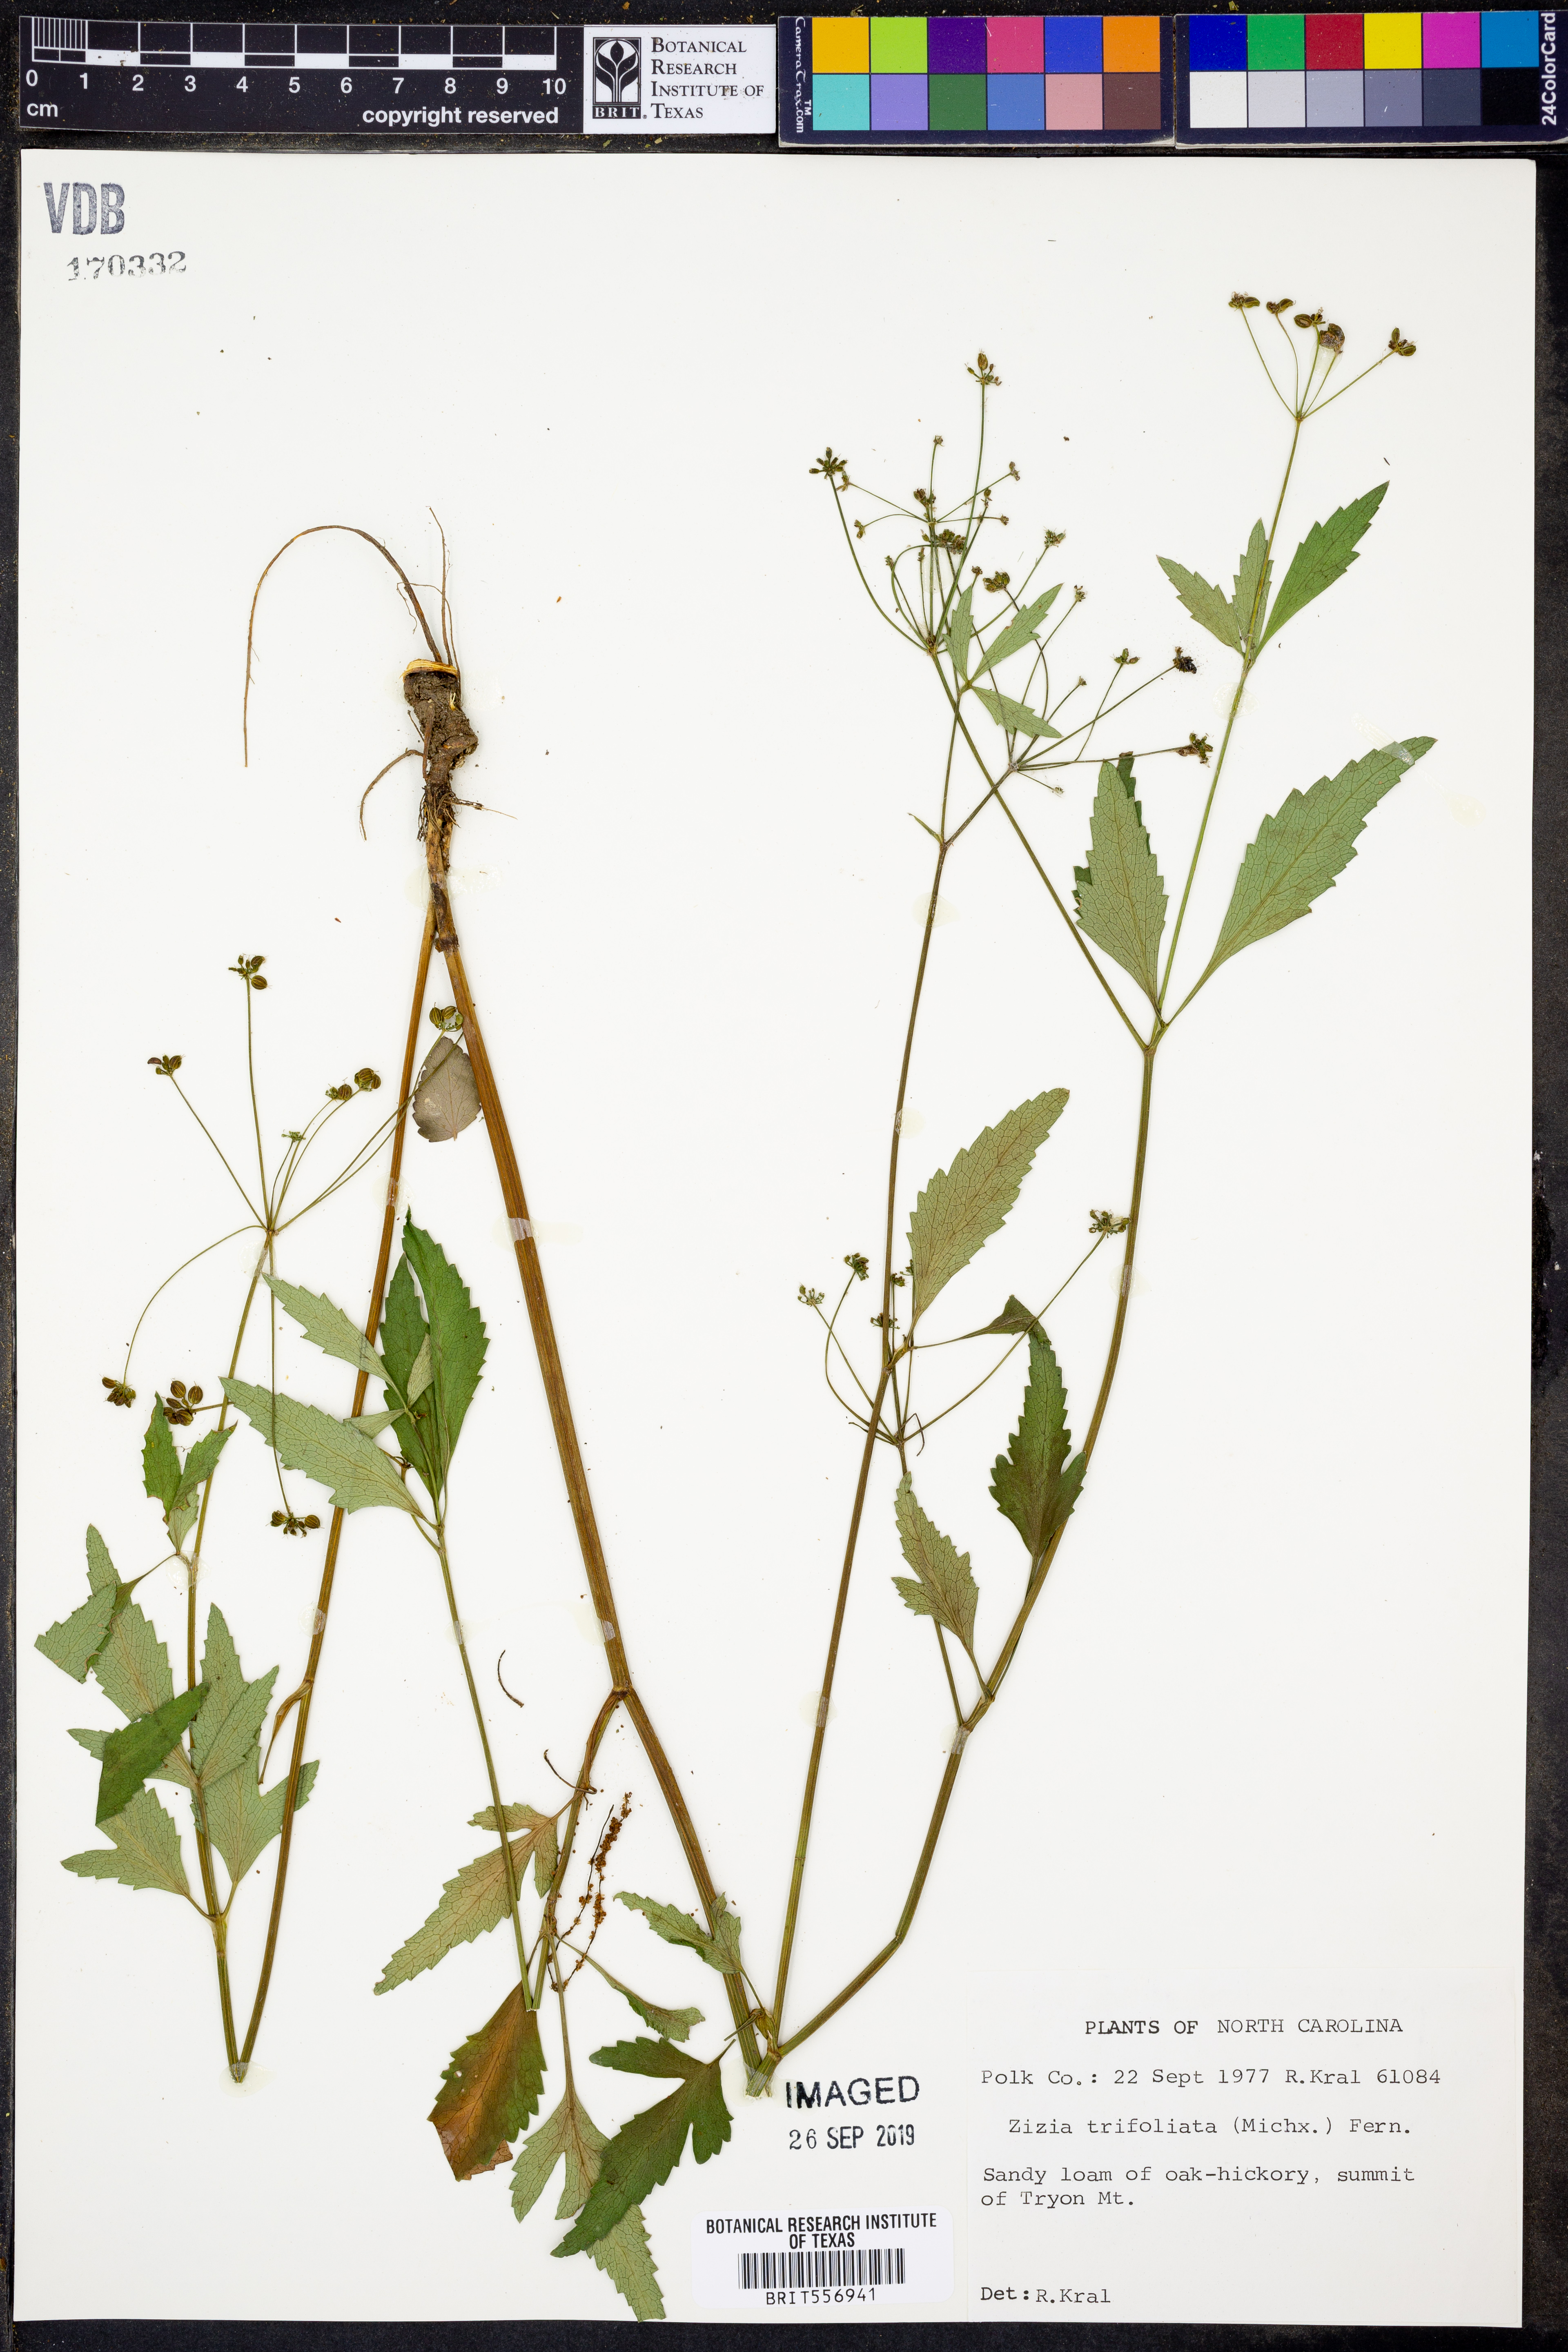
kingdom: Plantae
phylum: Tracheophyta
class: Magnoliopsida
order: Apiales
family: Apiaceae
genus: Zizia
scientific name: Zizia trifoliata
